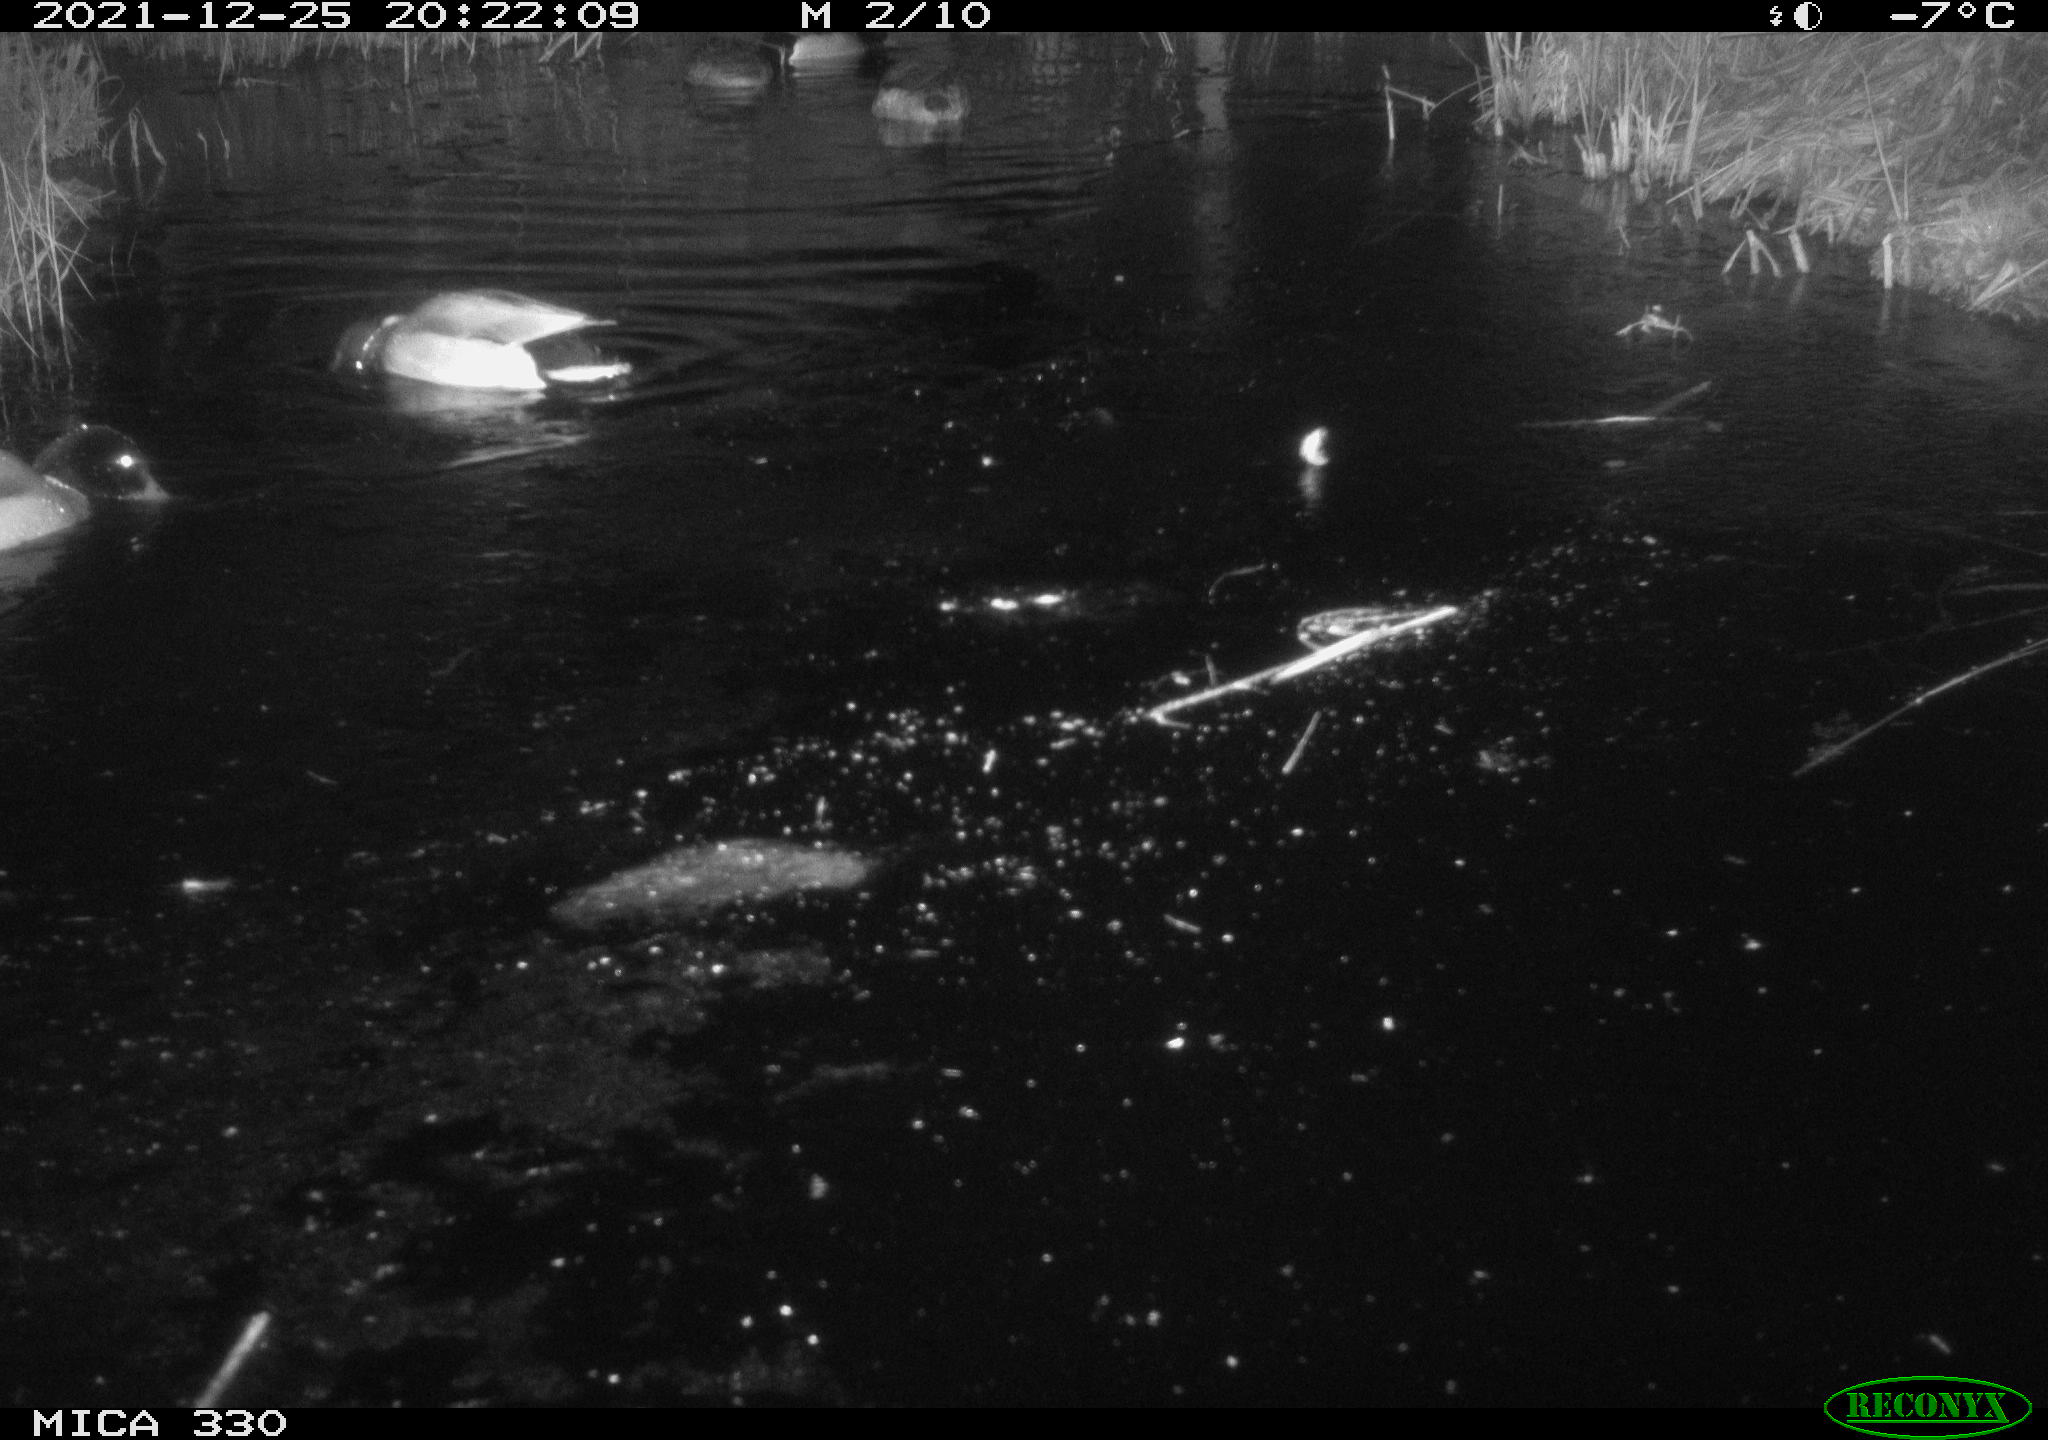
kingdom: Animalia
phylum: Chordata
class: Aves
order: Anseriformes
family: Anatidae
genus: Anas
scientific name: Anas platyrhynchos
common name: Mallard
